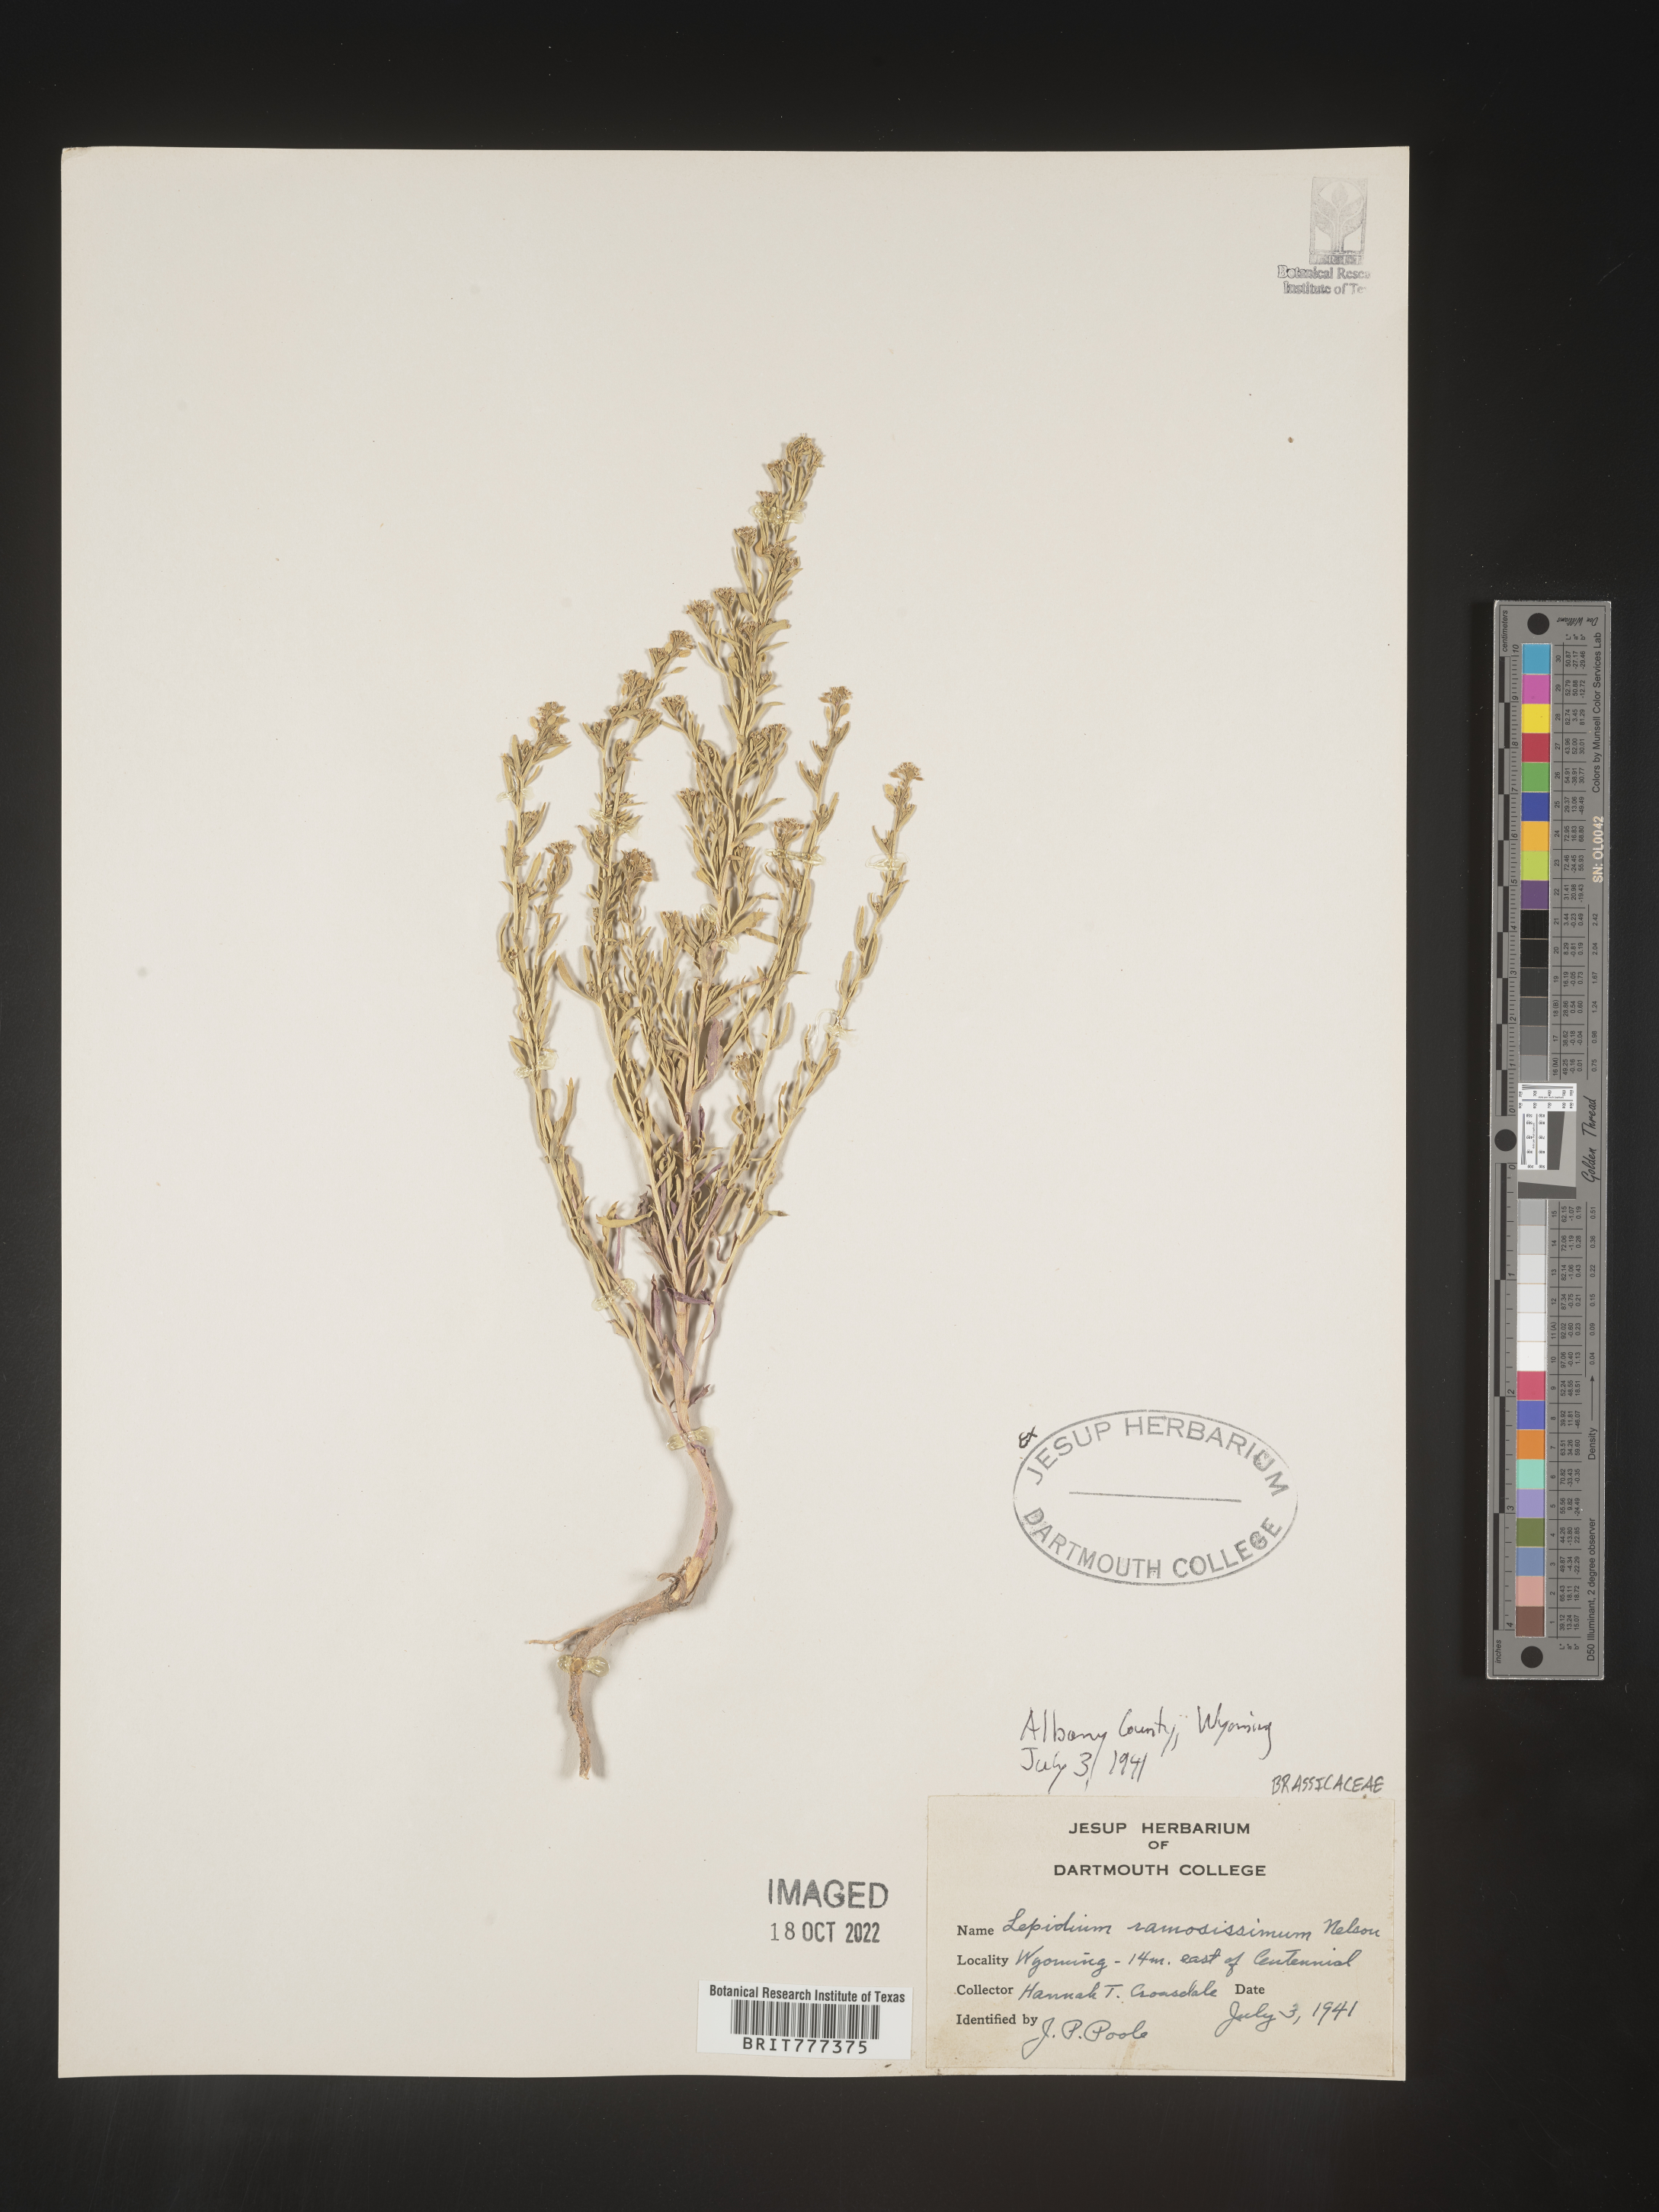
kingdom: Plantae
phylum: Tracheophyta
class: Magnoliopsida
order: Brassicales
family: Brassicaceae
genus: Lepidium
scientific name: Lepidium
